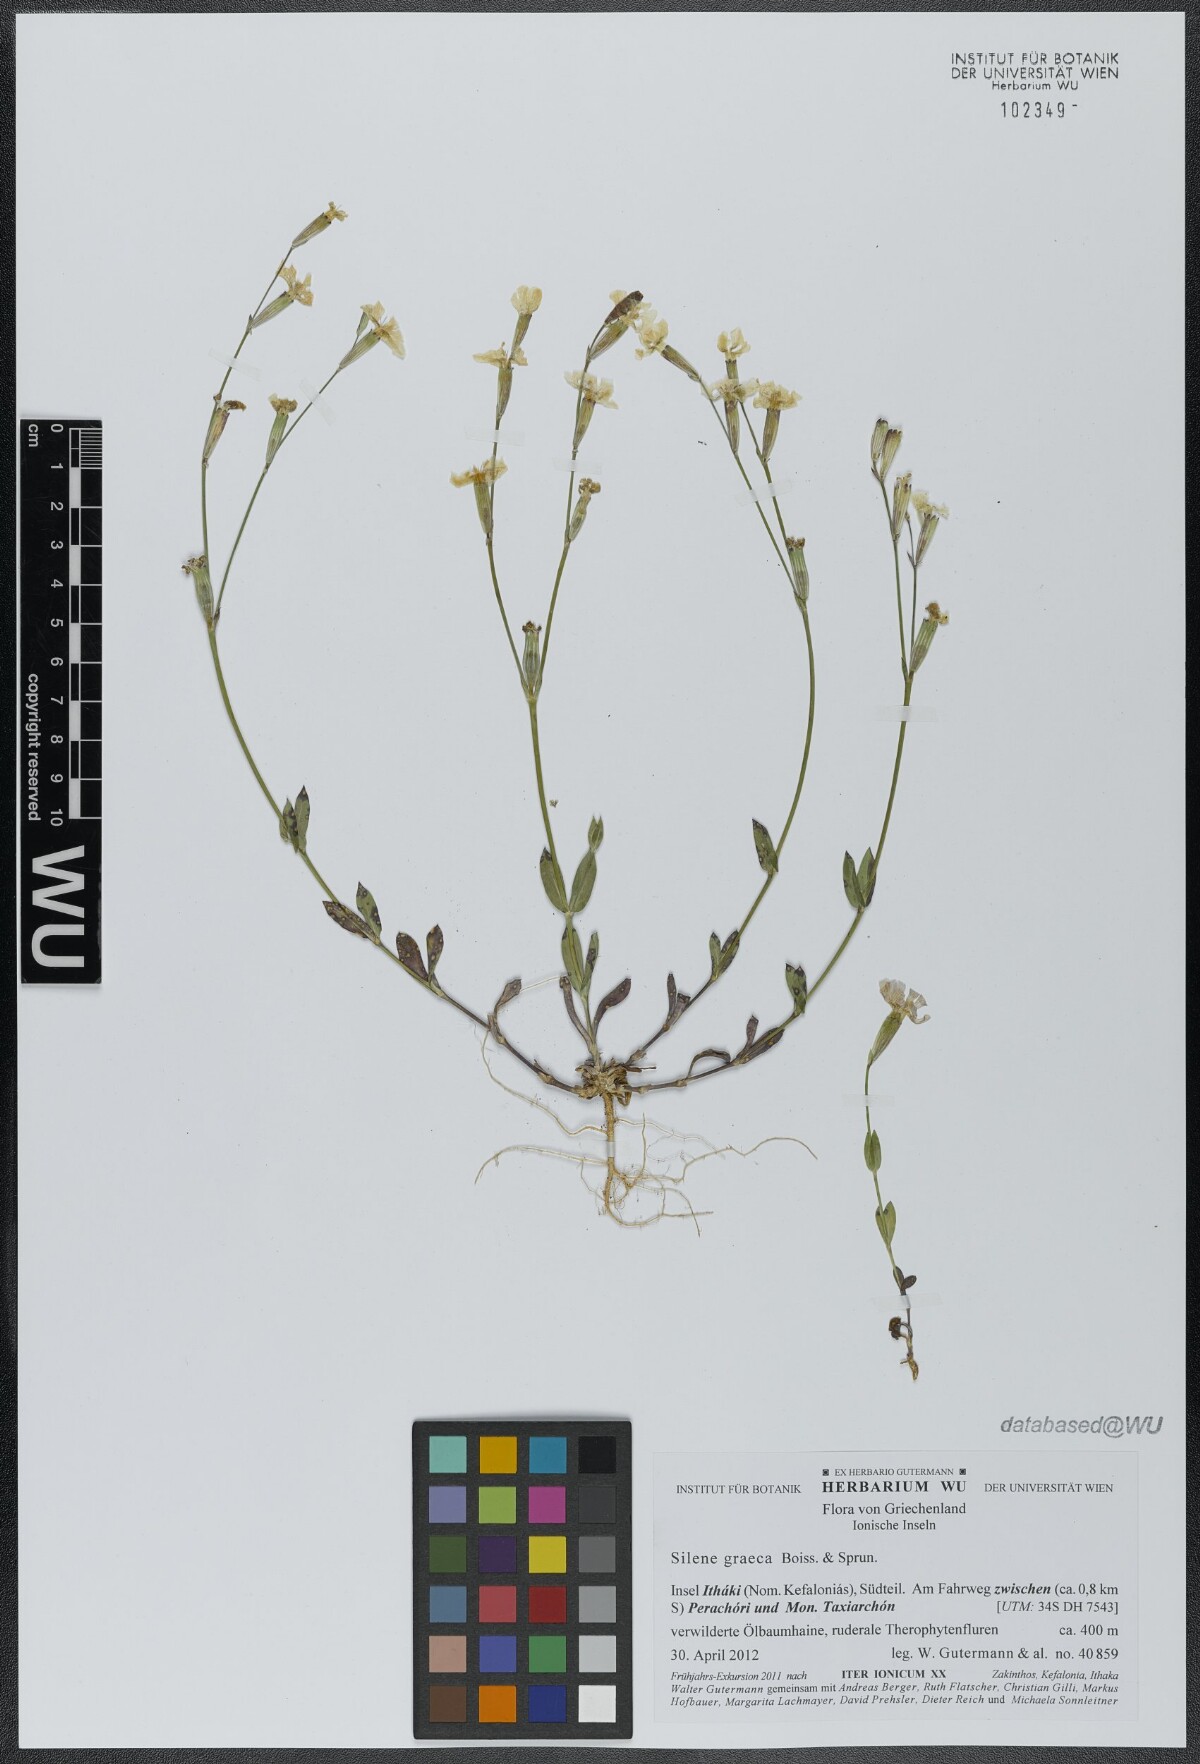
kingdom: Plantae
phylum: Tracheophyta
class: Magnoliopsida
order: Caryophyllales
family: Caryophyllaceae
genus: Silene
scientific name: Silene graeca
